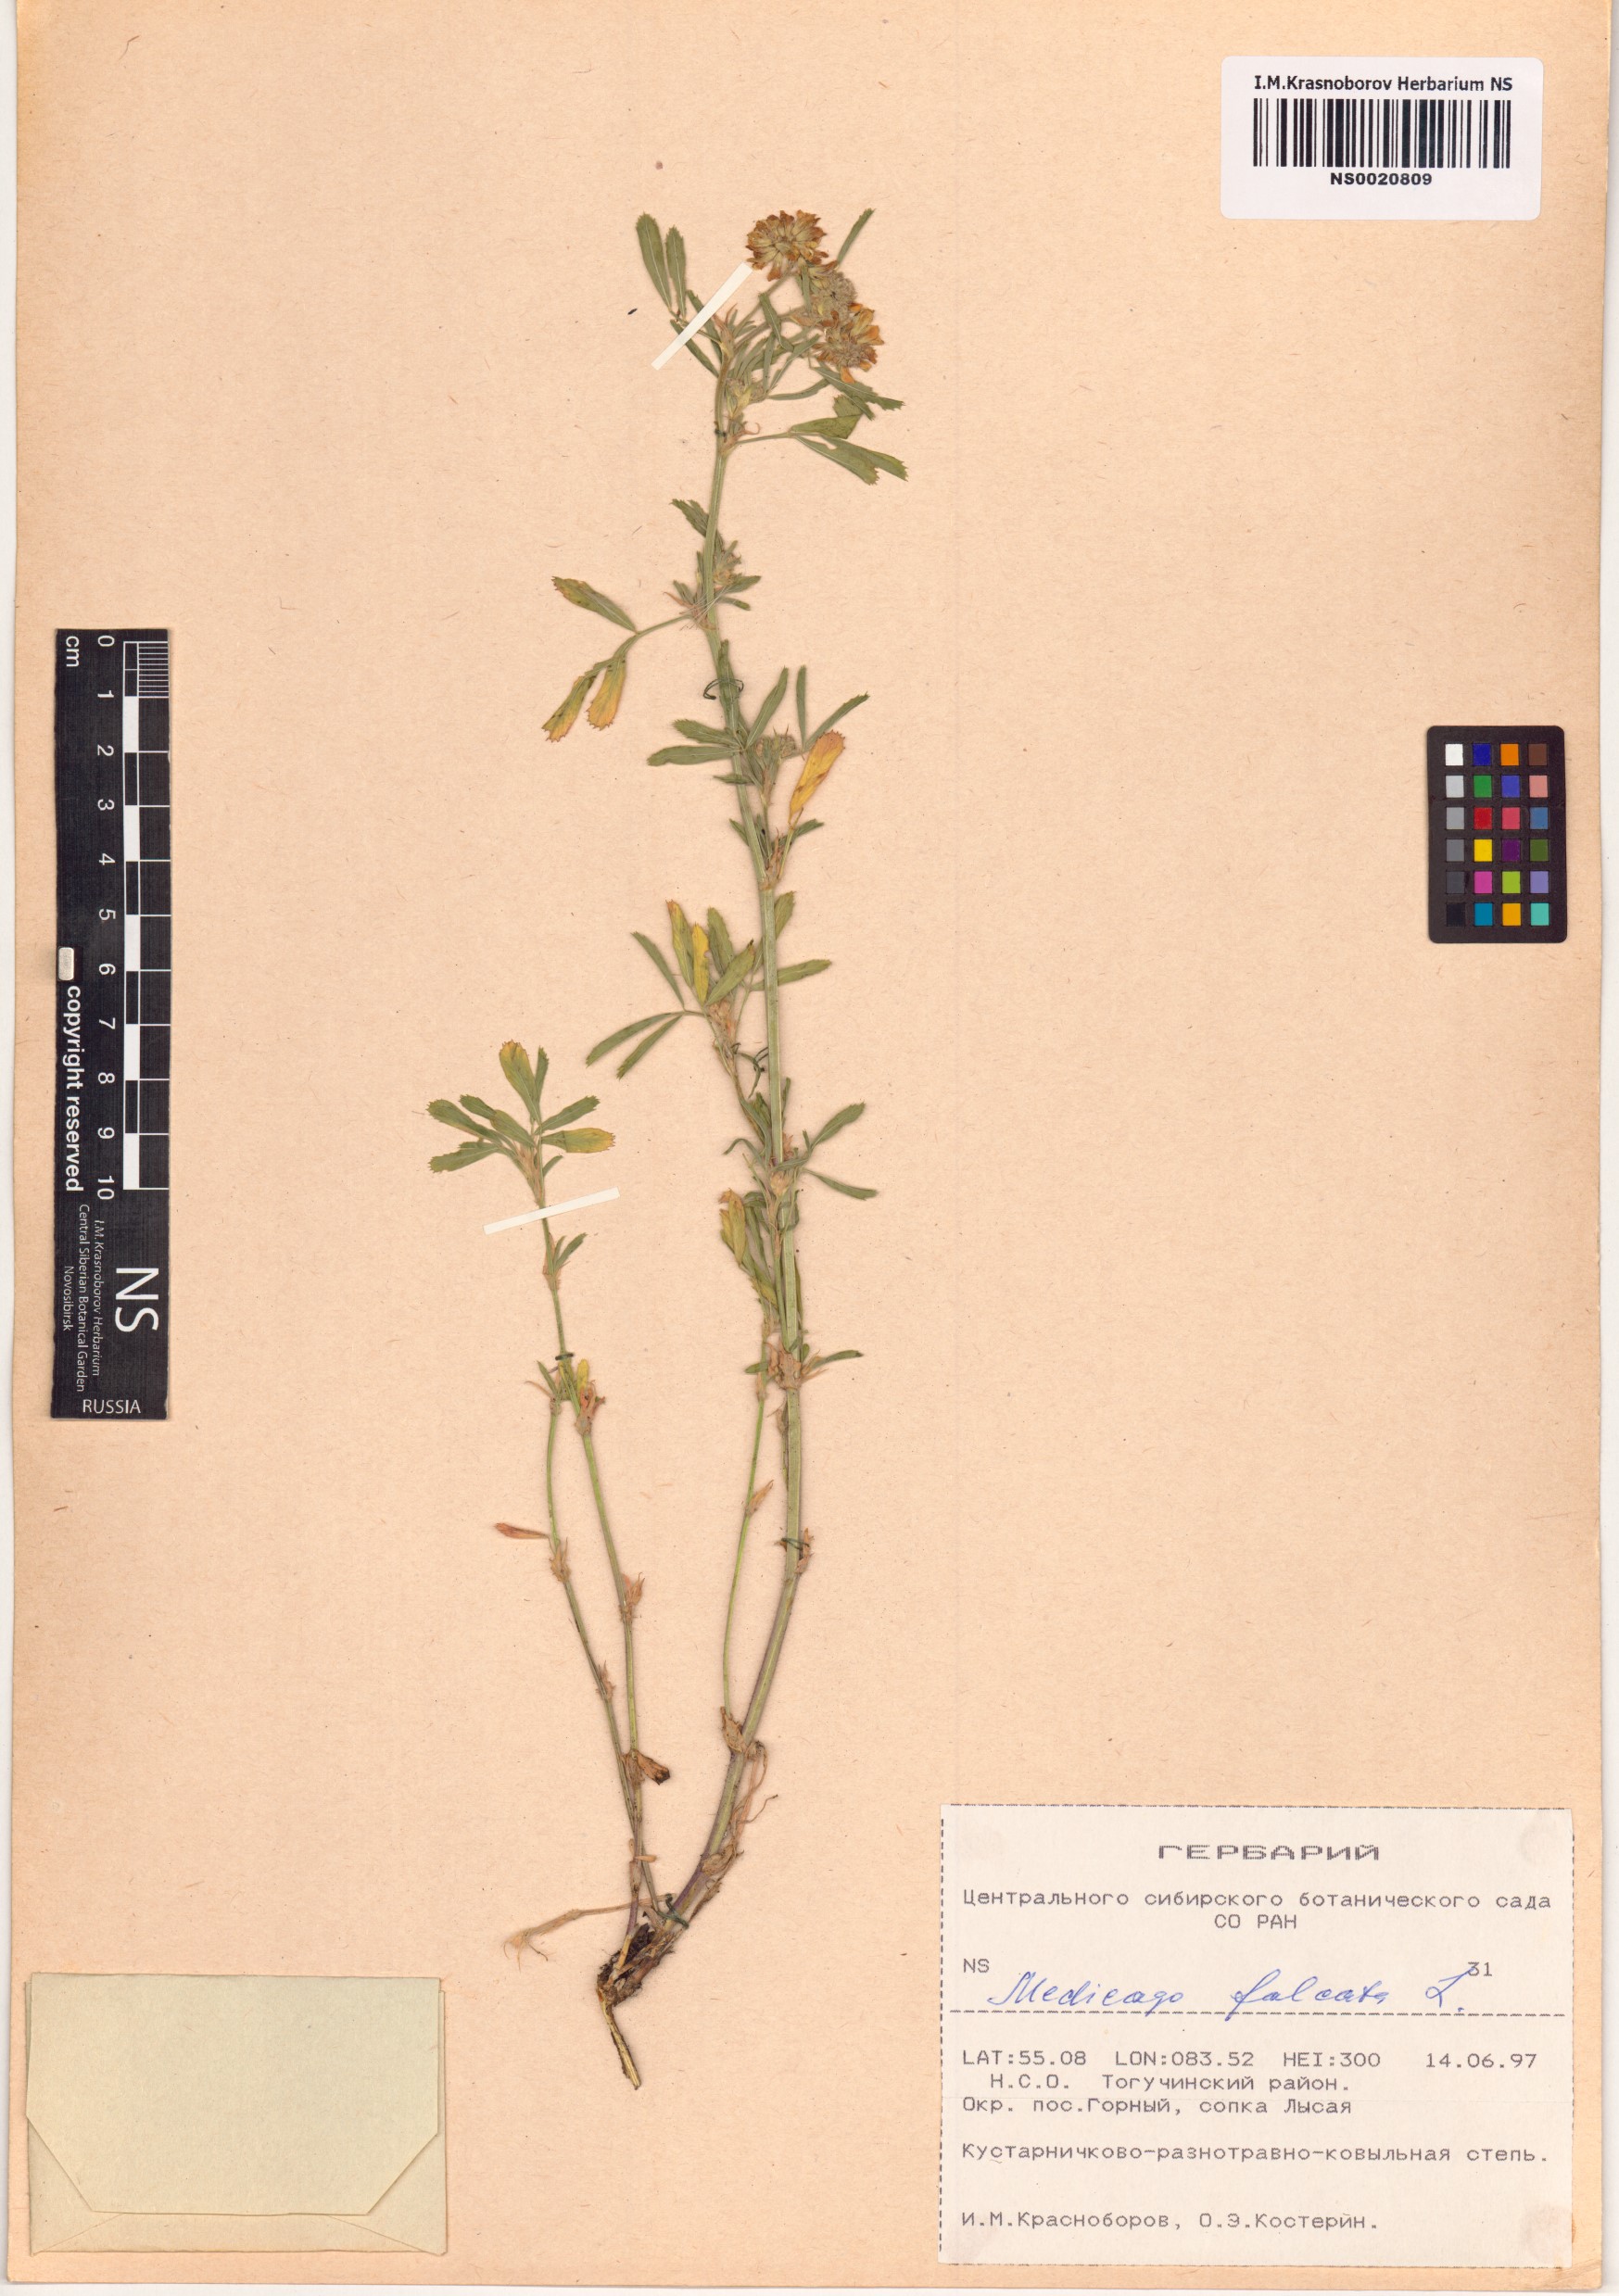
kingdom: Plantae
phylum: Tracheophyta
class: Magnoliopsida
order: Fabales
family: Fabaceae
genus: Medicago
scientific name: Medicago falcata
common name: Sickle medick
